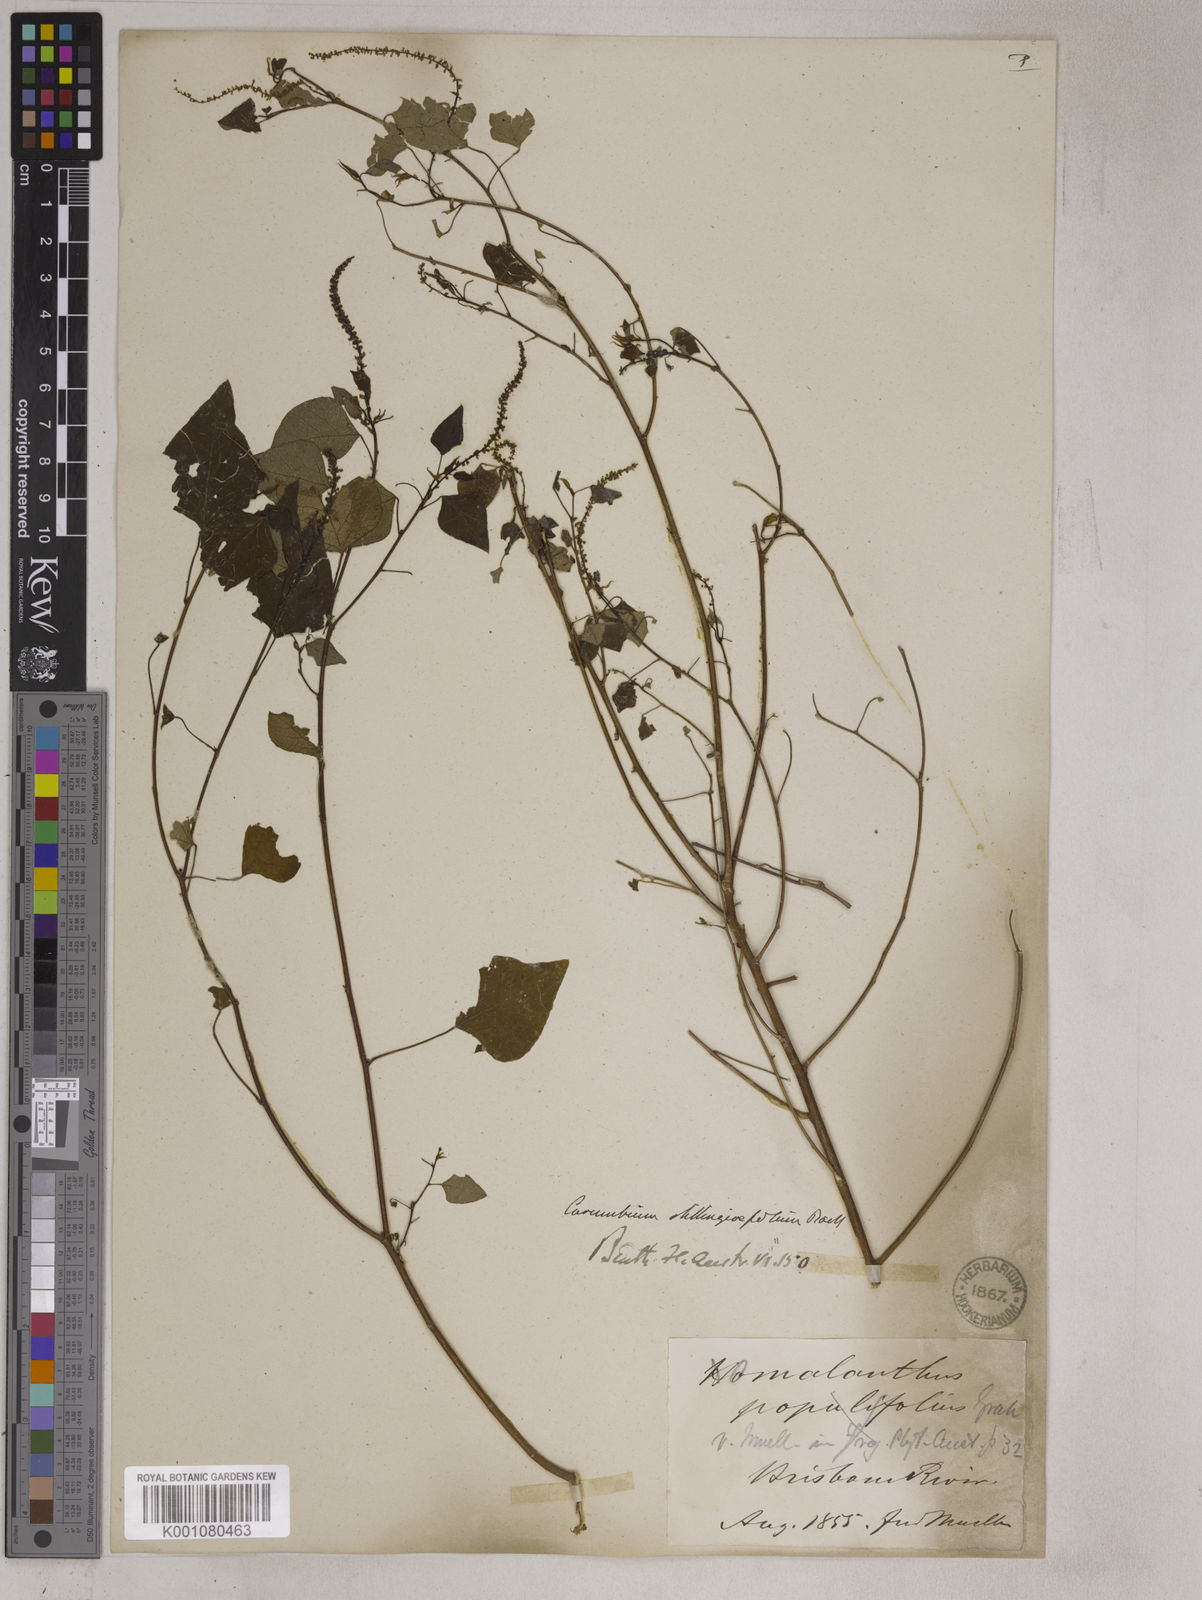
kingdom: Plantae
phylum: Tracheophyta
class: Magnoliopsida
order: Malpighiales
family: Euphorbiaceae
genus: Homalanthus
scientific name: Homalanthus stillingifolius
